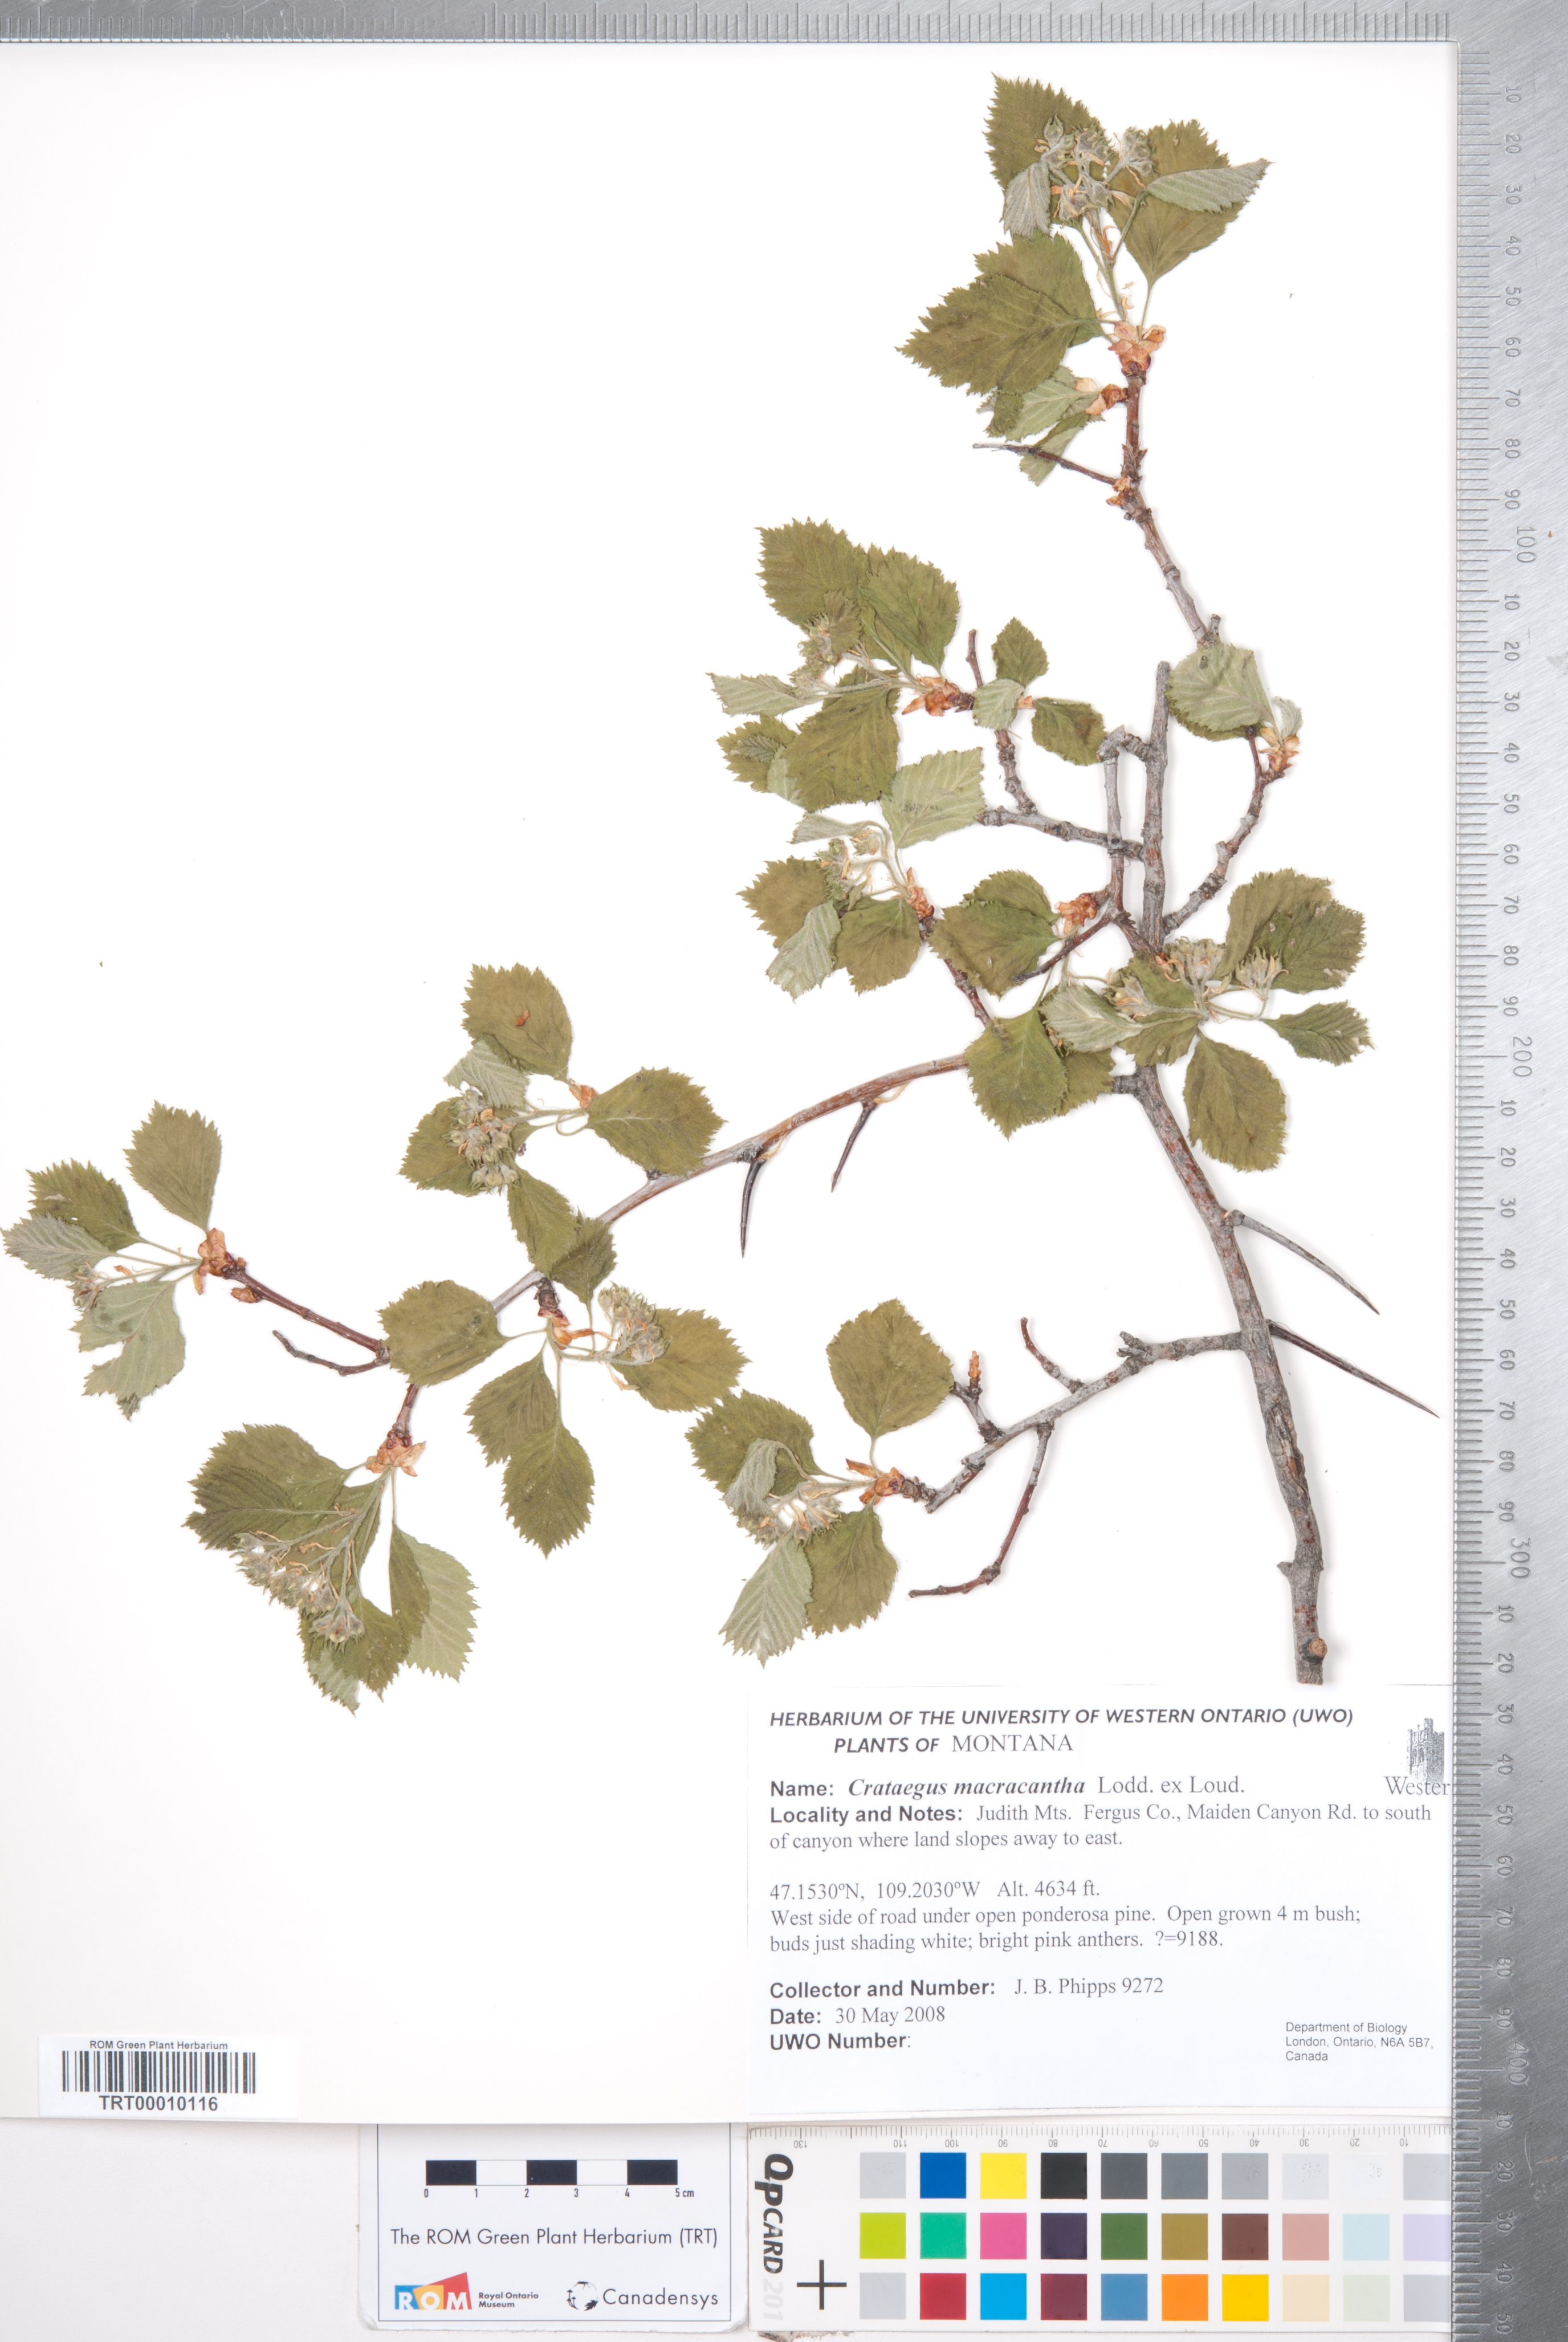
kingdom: Plantae
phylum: Tracheophyta
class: Magnoliopsida
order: Rosales
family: Rosaceae
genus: Crataegus
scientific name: Crataegus macracantha
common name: Large-thorn hawthorn
